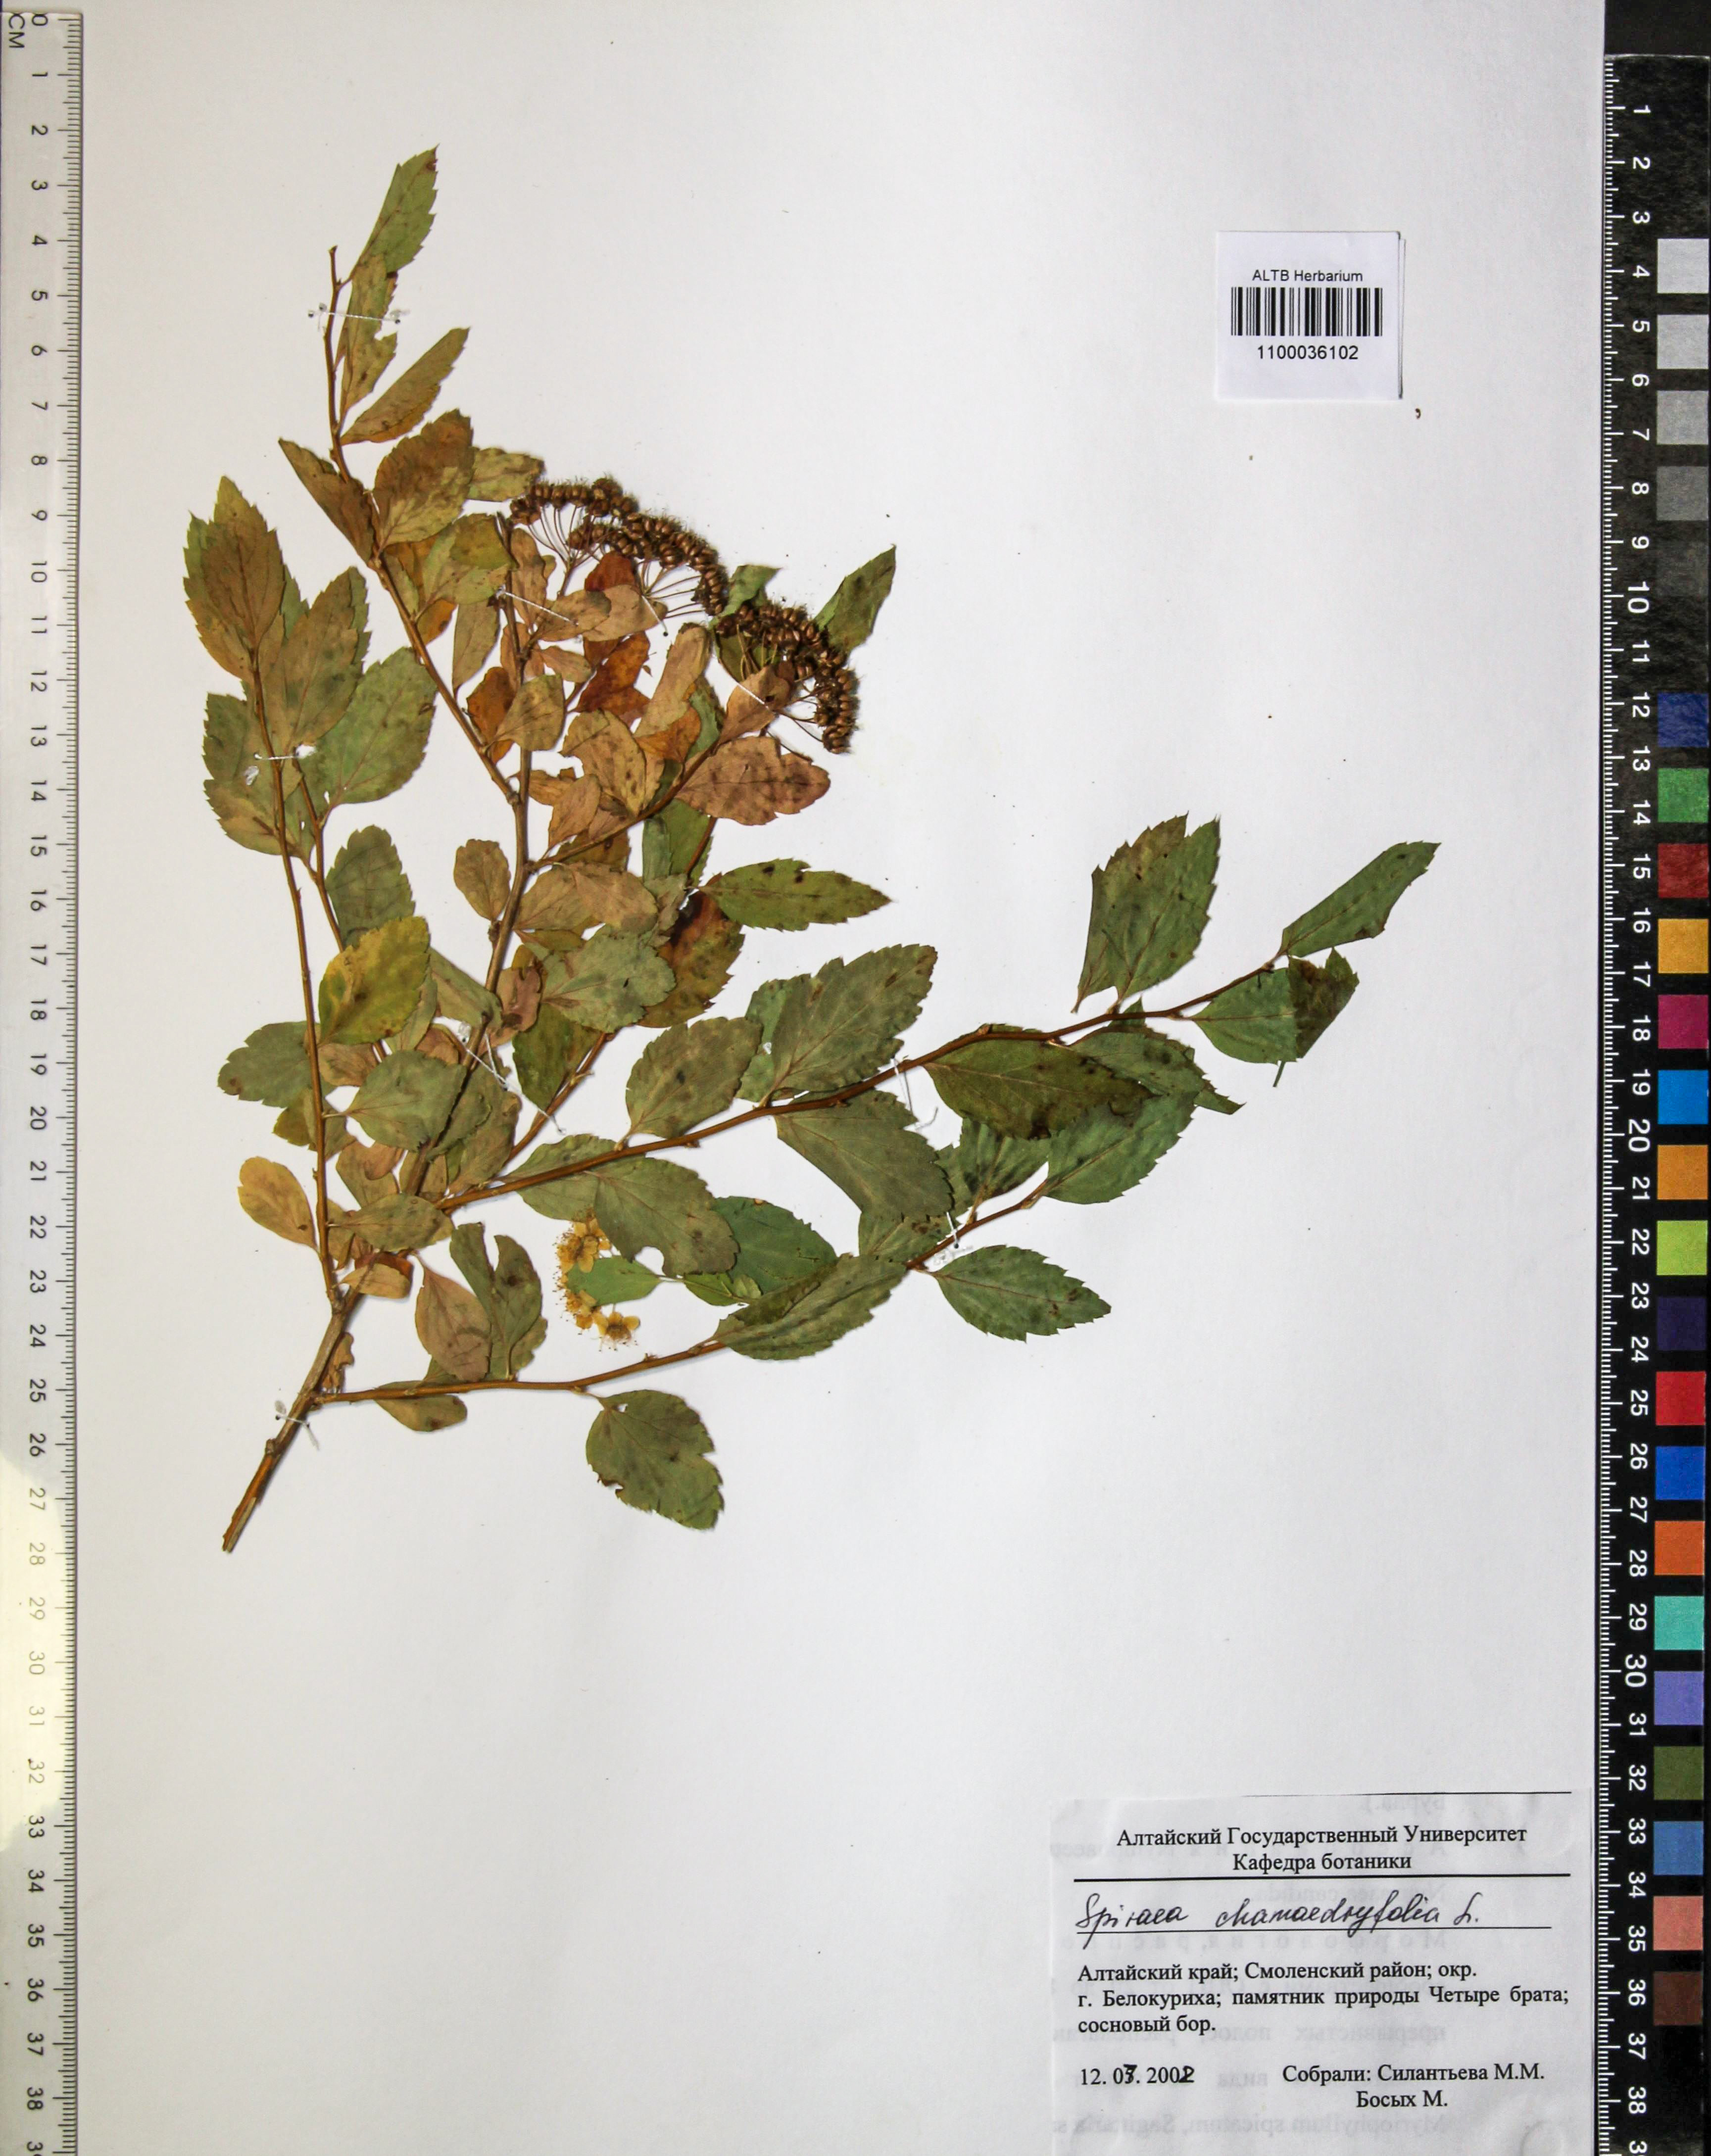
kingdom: Plantae
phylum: Tracheophyta
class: Magnoliopsida
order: Rosales
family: Rosaceae
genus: Spiraea
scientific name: Spiraea chamaedryfolia
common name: Elm-leaved spiraea
